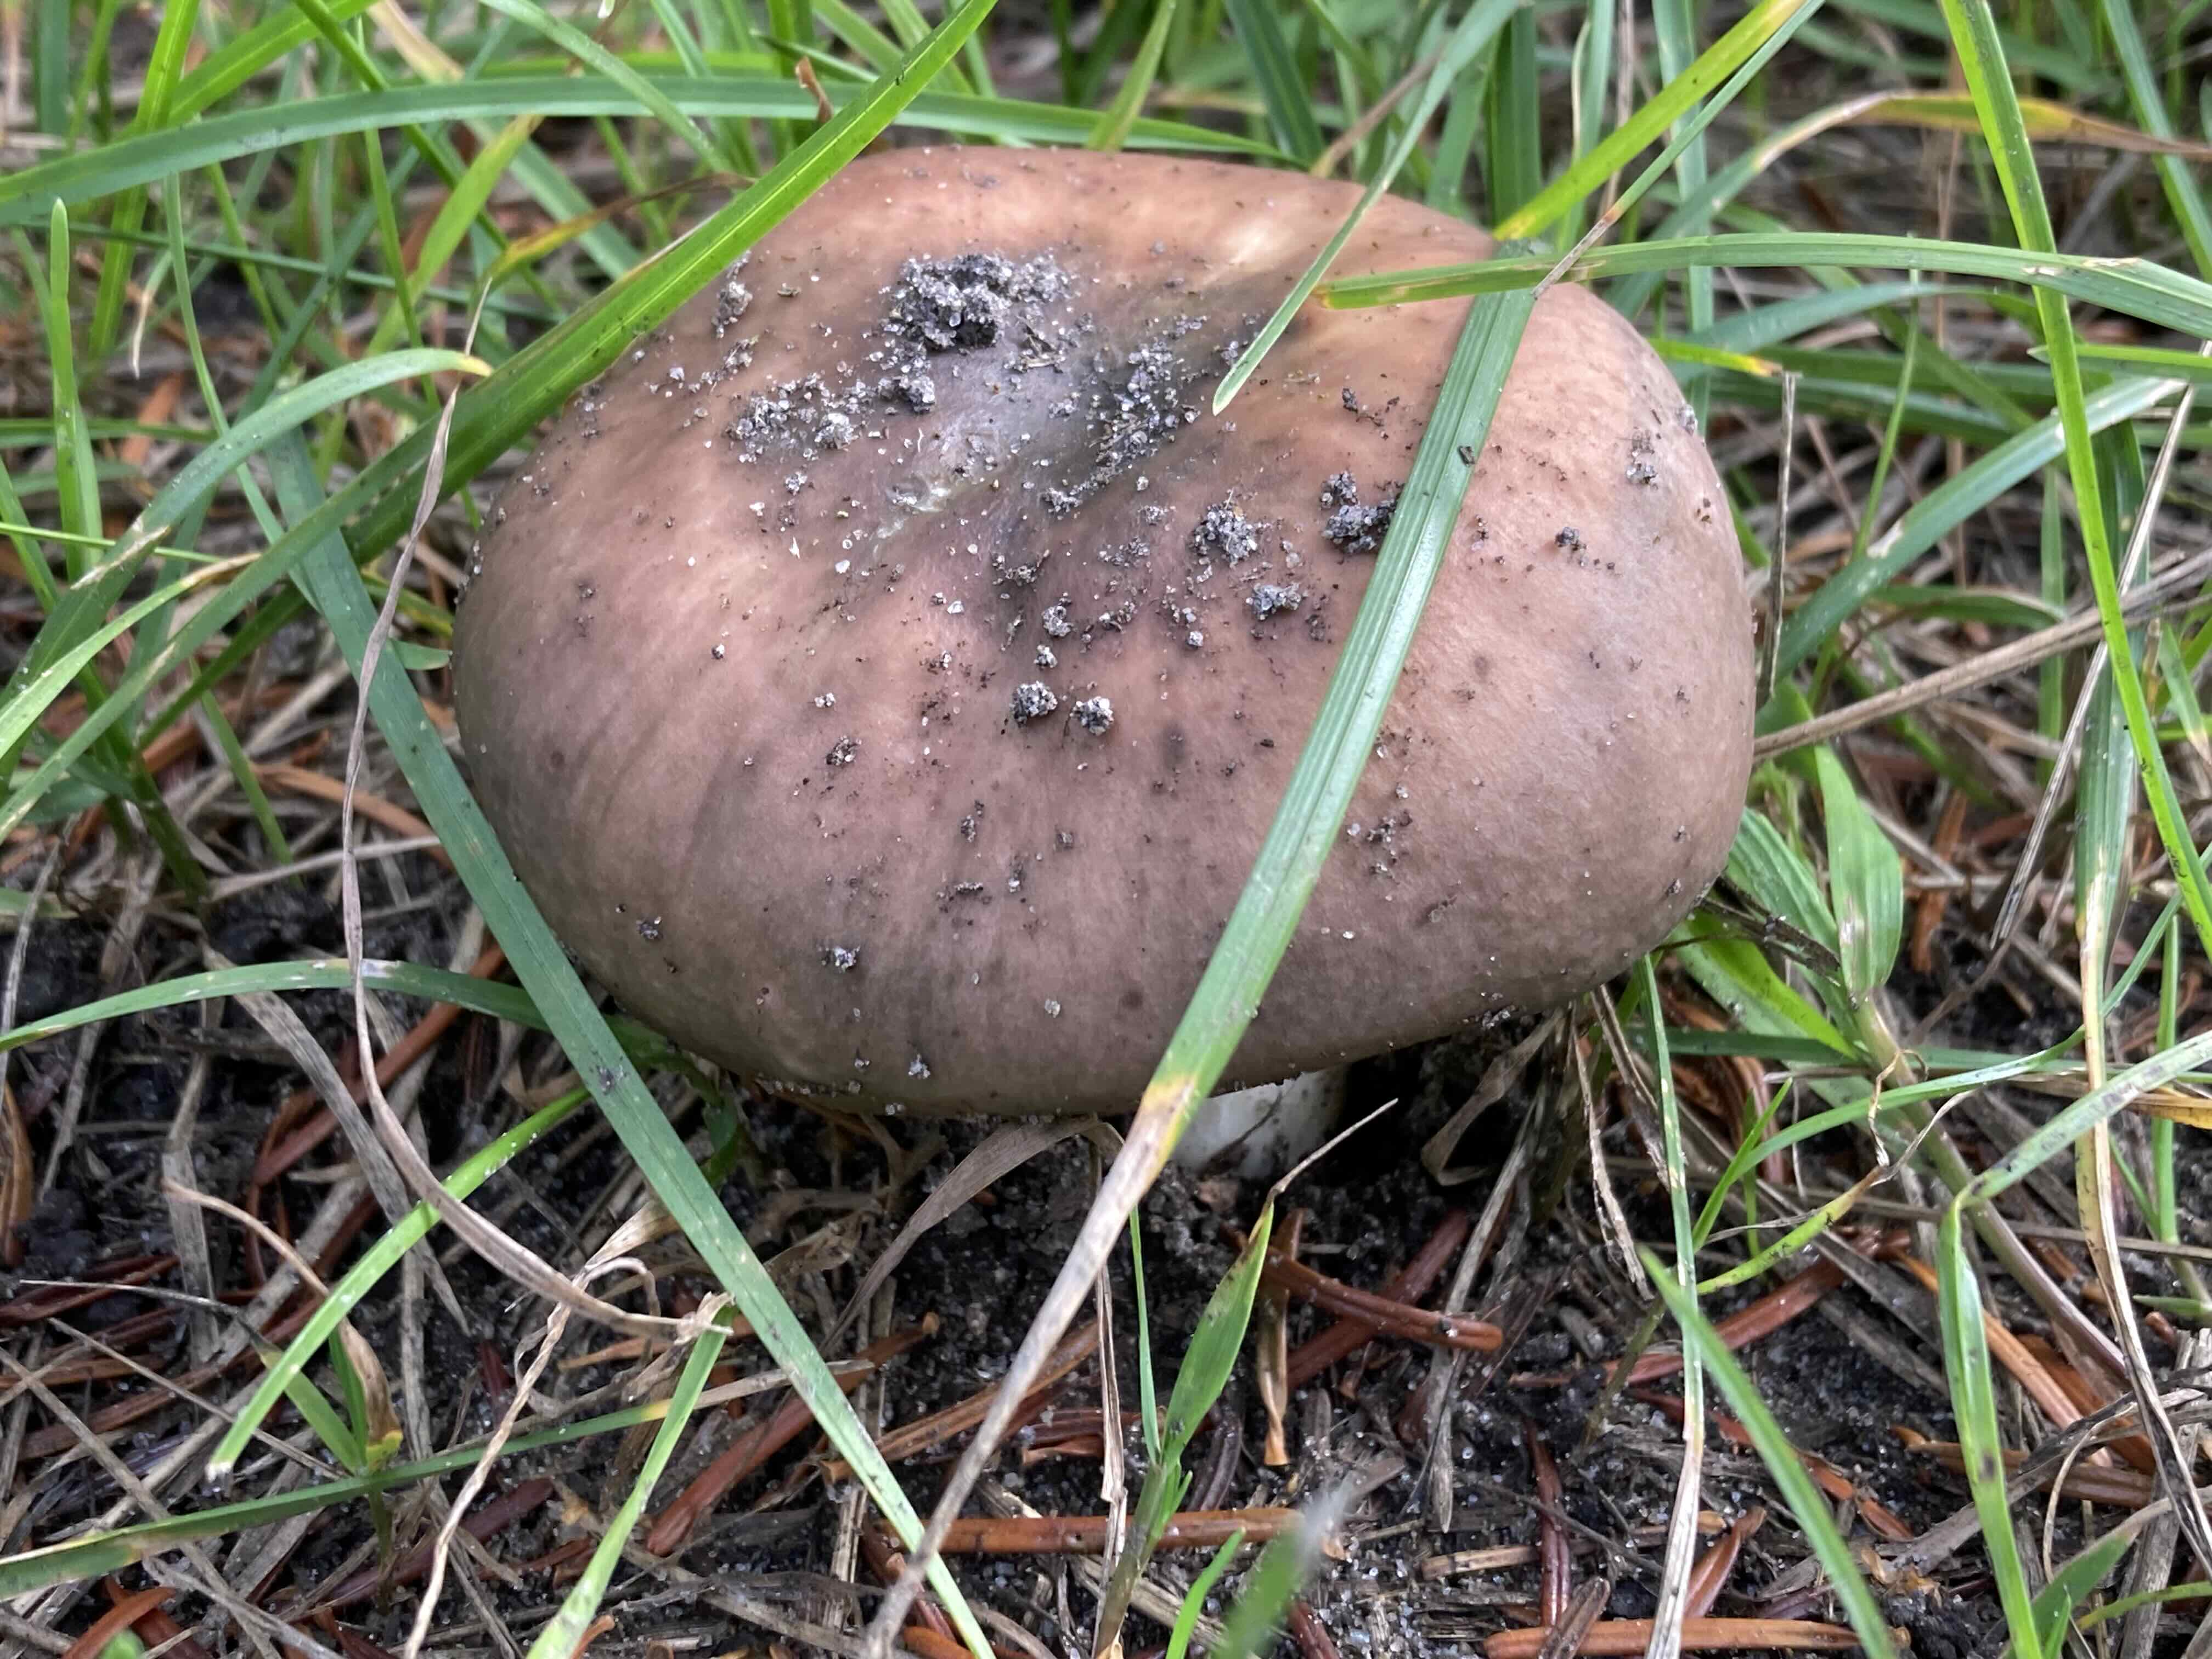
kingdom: Fungi
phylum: Basidiomycota
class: Agaricomycetes
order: Russulales
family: Russulaceae
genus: Russula
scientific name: Russula vesca
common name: spiselig skørhat
